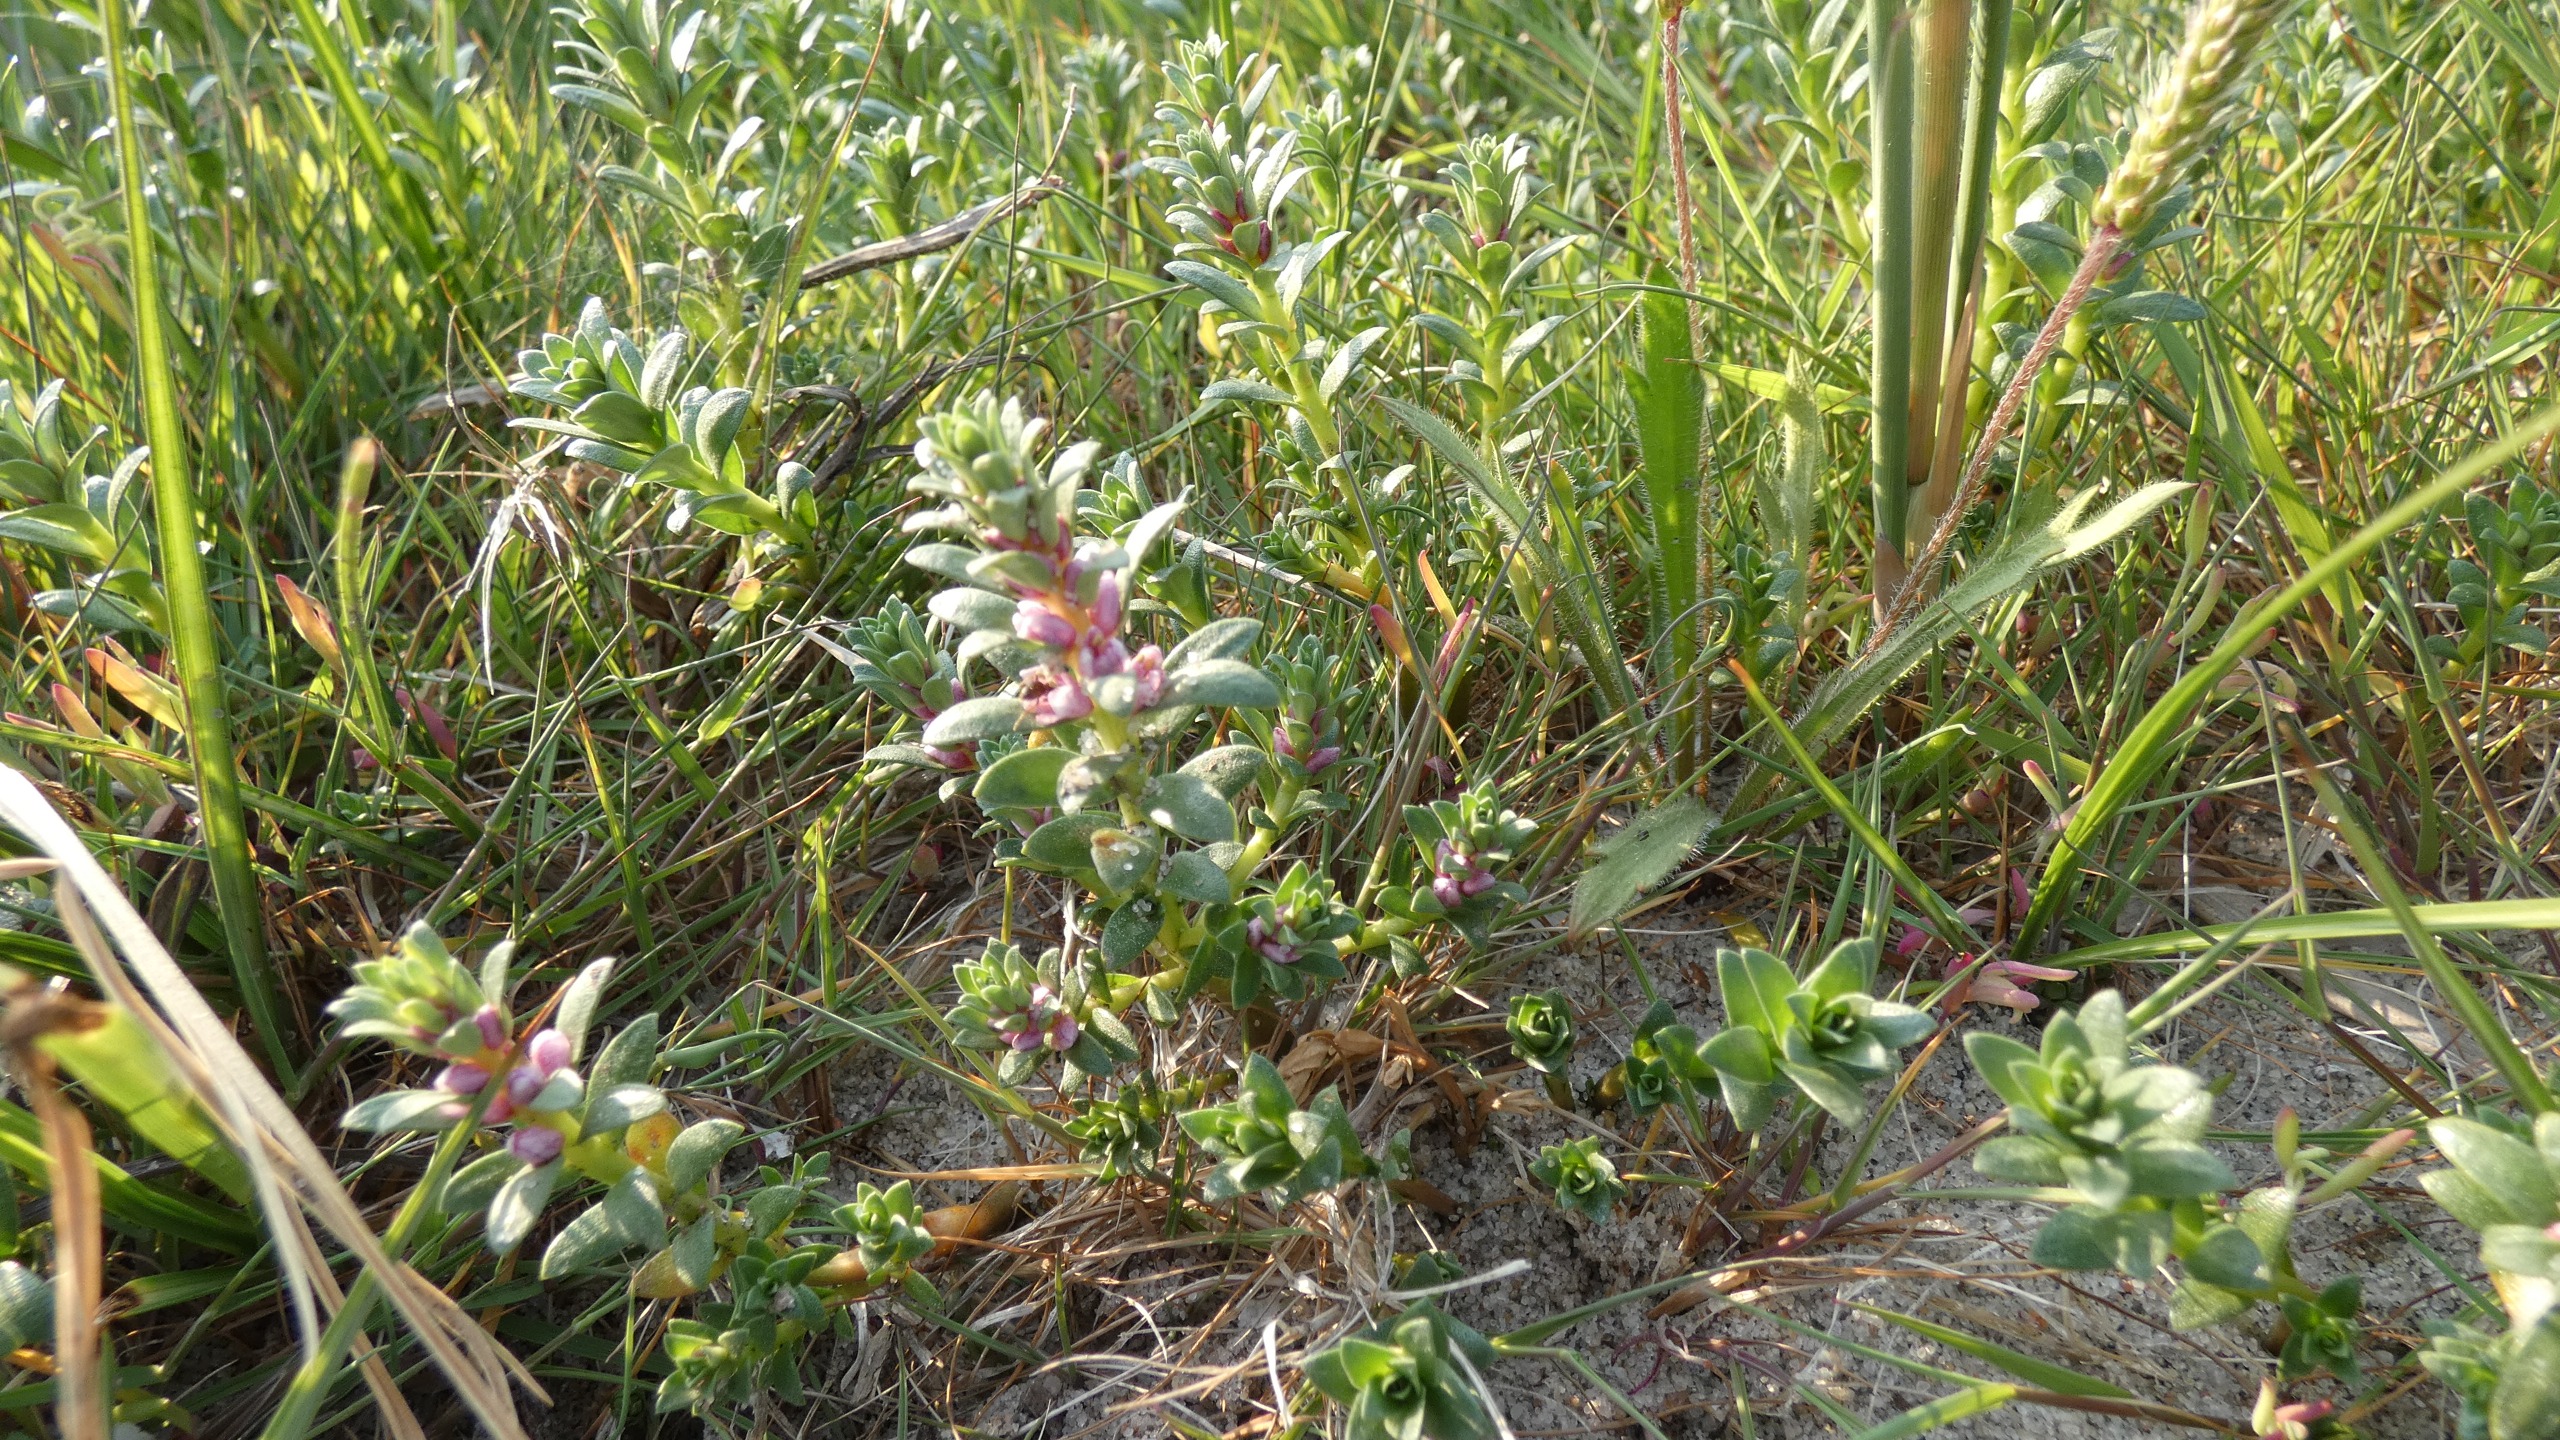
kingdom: Plantae
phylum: Tracheophyta
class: Magnoliopsida
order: Ericales
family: Primulaceae
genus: Lysimachia
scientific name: Lysimachia maritima
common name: Sandkryb
